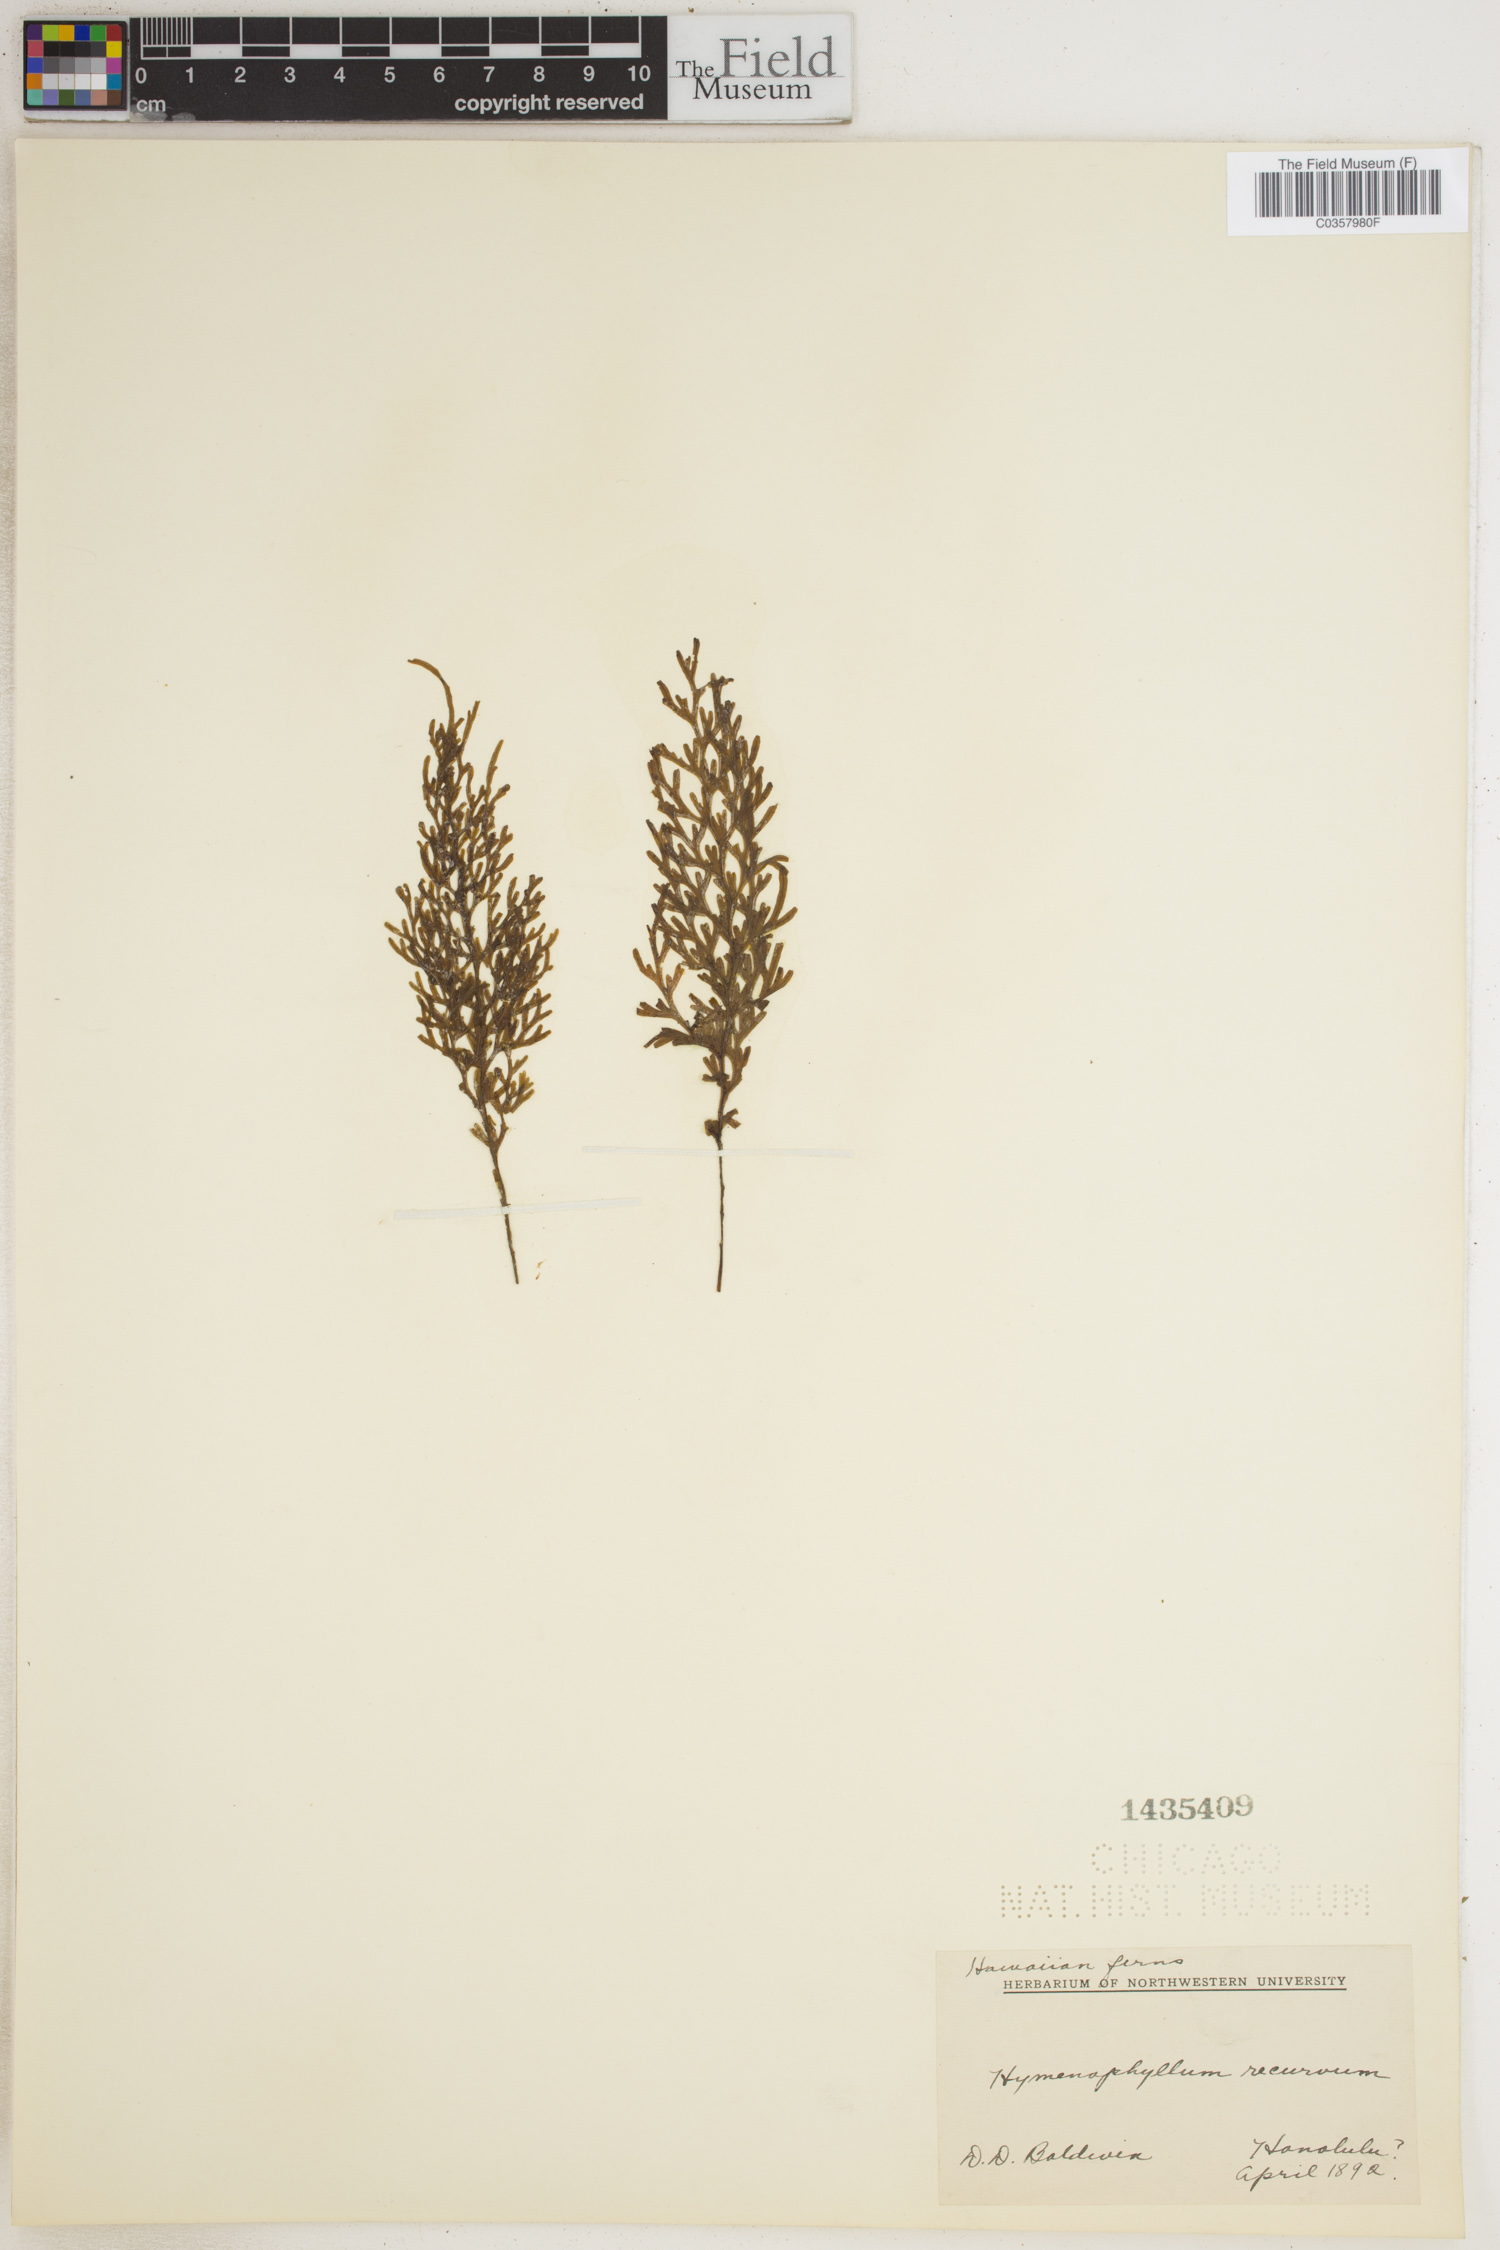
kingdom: Plantae
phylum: Tracheophyta
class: Polypodiopsida
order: Hymenophyllales
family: Hymenophyllaceae
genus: Hymenophyllum
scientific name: Hymenophyllum recurvum
